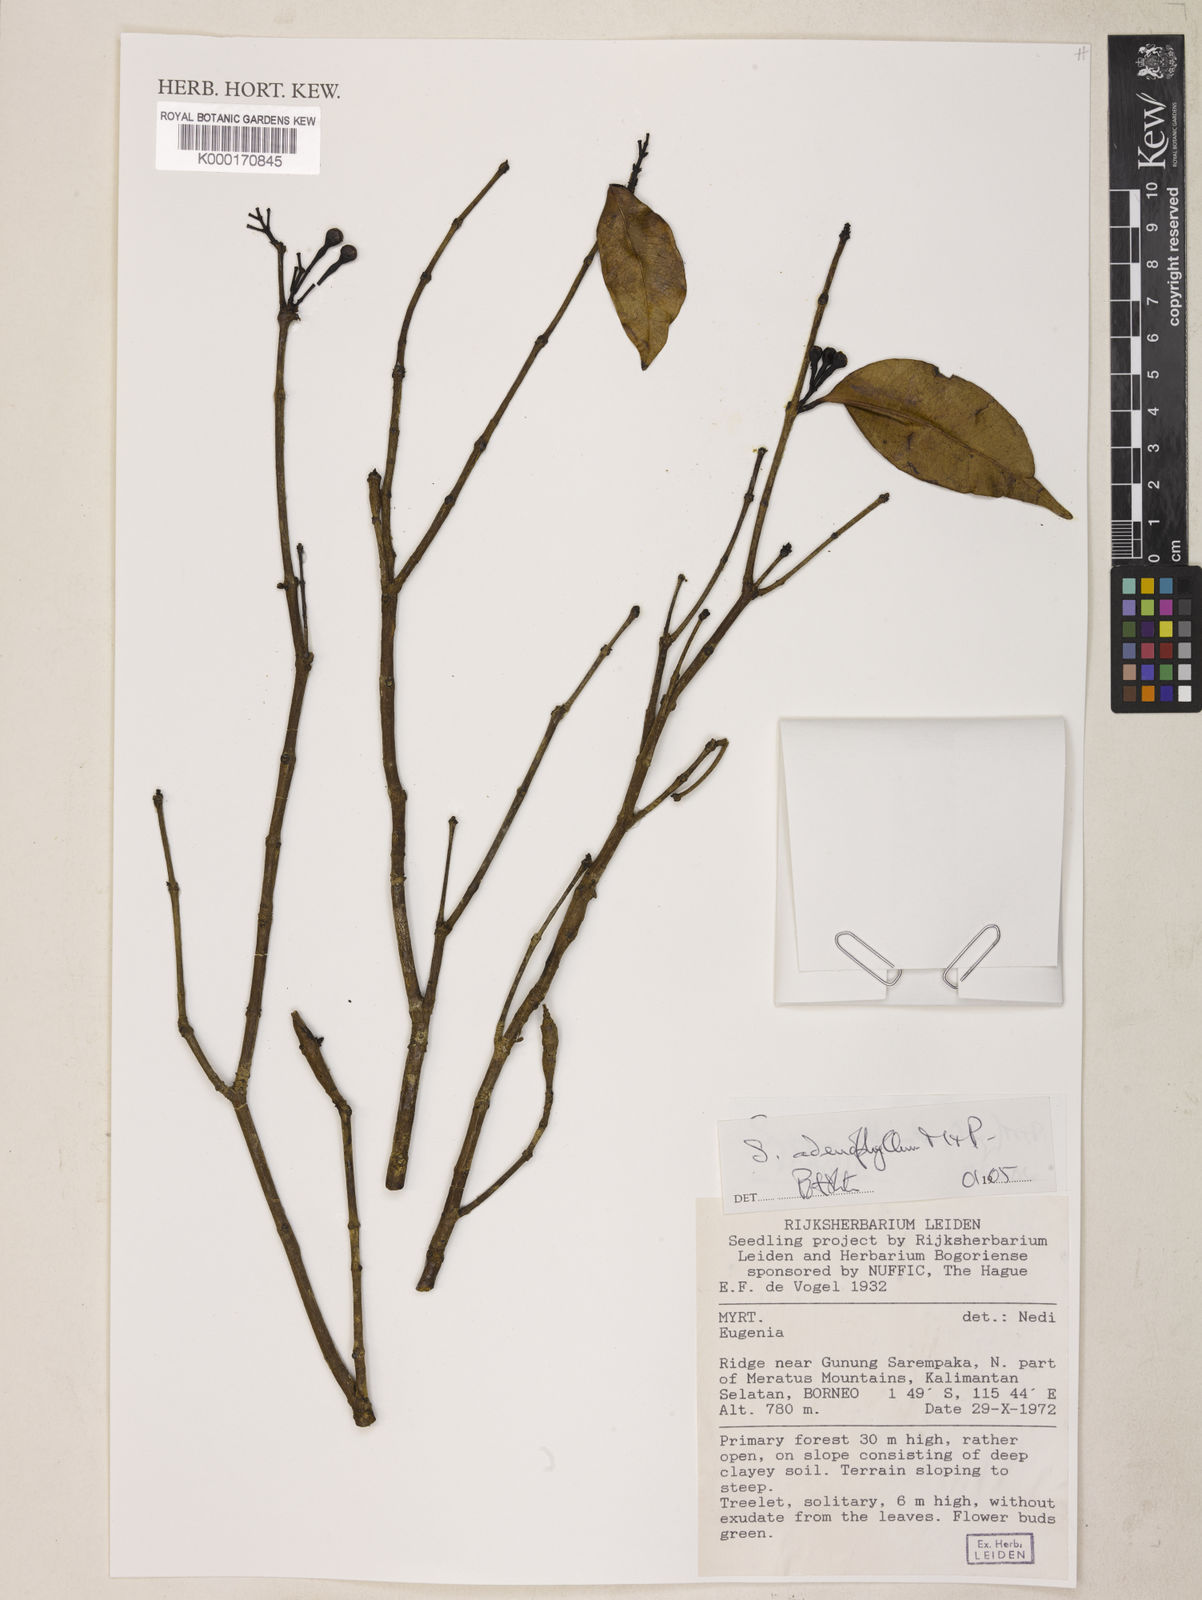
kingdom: Plantae
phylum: Tracheophyta
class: Magnoliopsida
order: Myrtales
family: Myrtaceae
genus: Syzygium
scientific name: Syzygium attenuatum
